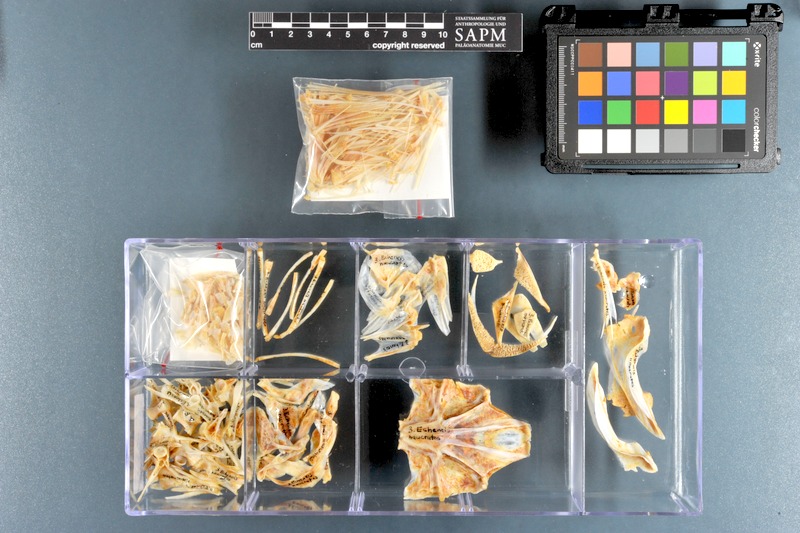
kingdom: Animalia
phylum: Chordata
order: Perciformes
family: Echeneidae
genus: Echeneis
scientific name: Echeneis naucrates
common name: Sharksucker
